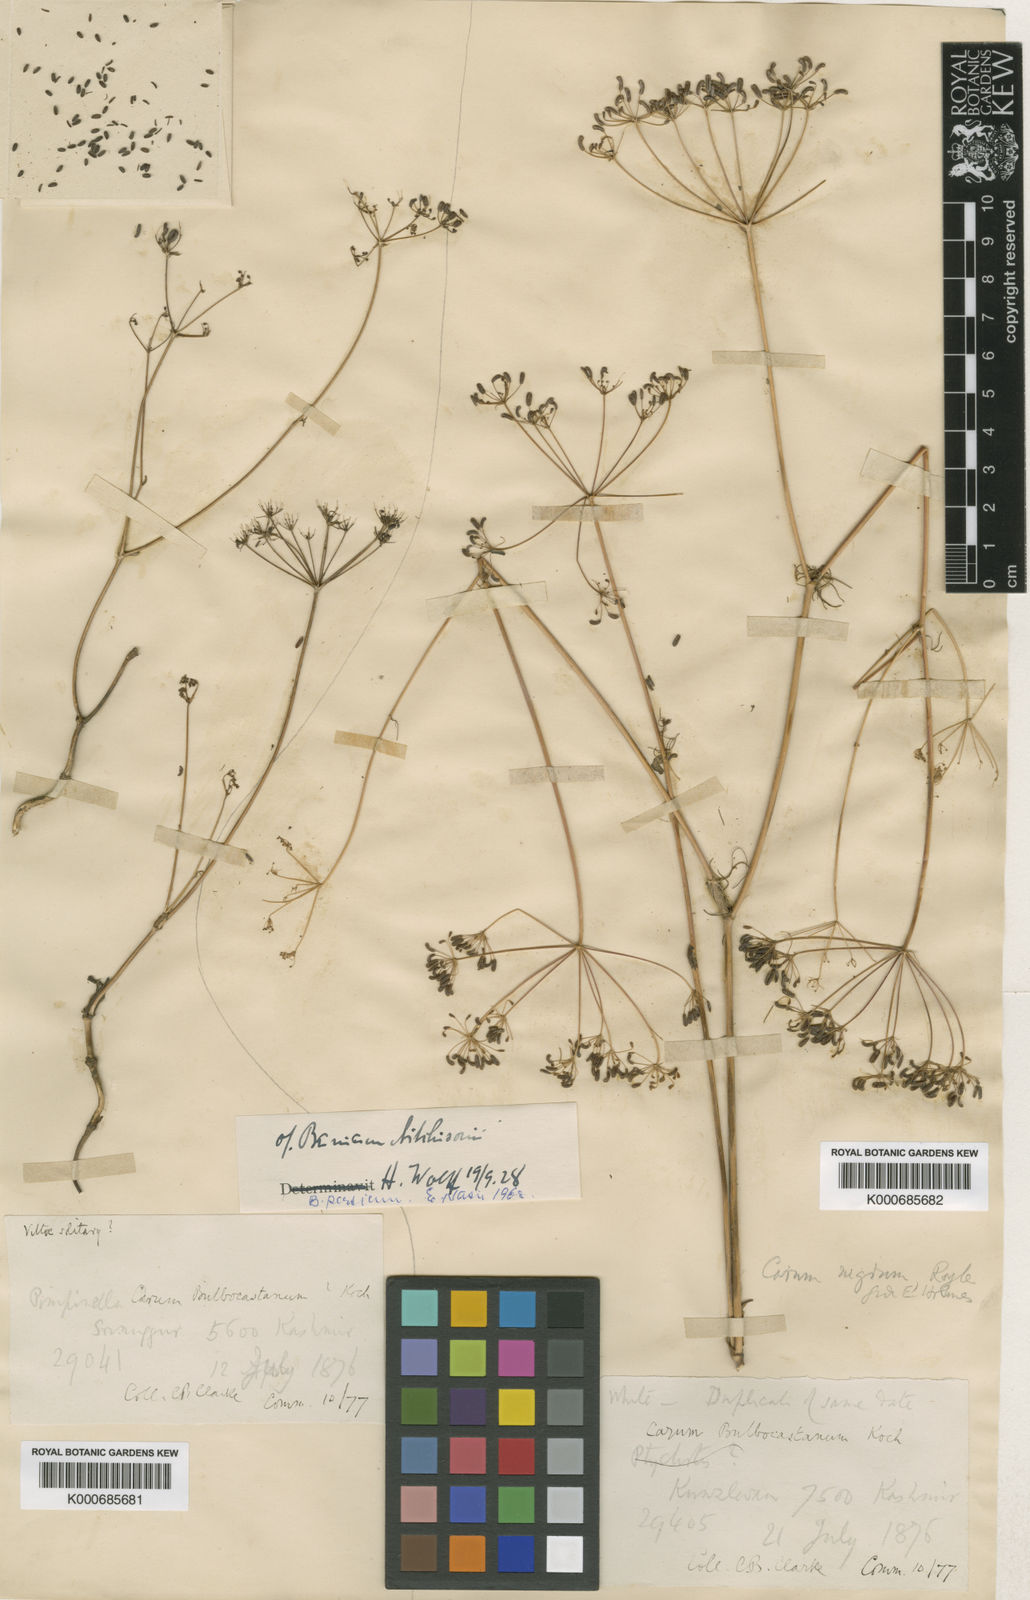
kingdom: Plantae
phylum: Tracheophyta
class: Magnoliopsida
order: Apiales
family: Apiaceae
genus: Elwendia
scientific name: Elwendia persica
